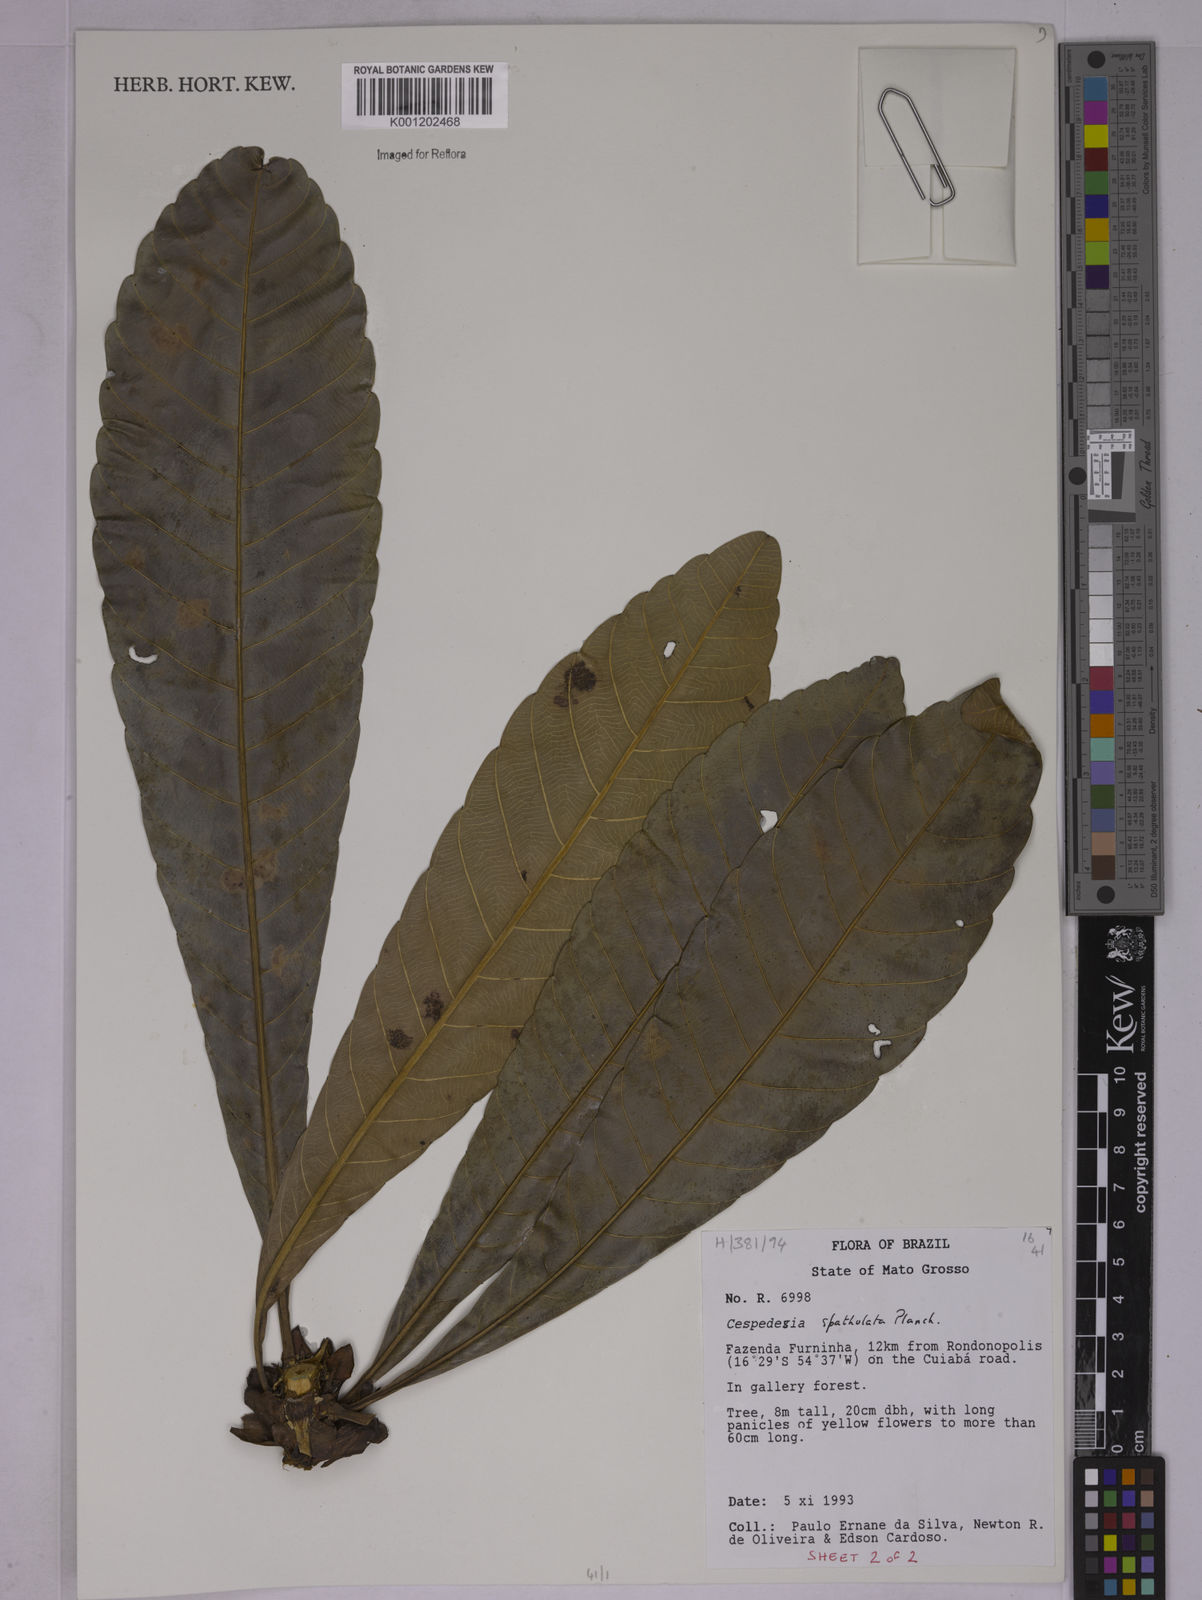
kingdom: Plantae
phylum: Tracheophyta
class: Magnoliopsida
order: Malpighiales
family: Ochnaceae
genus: Cespedesia
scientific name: Cespedesia spathulata
